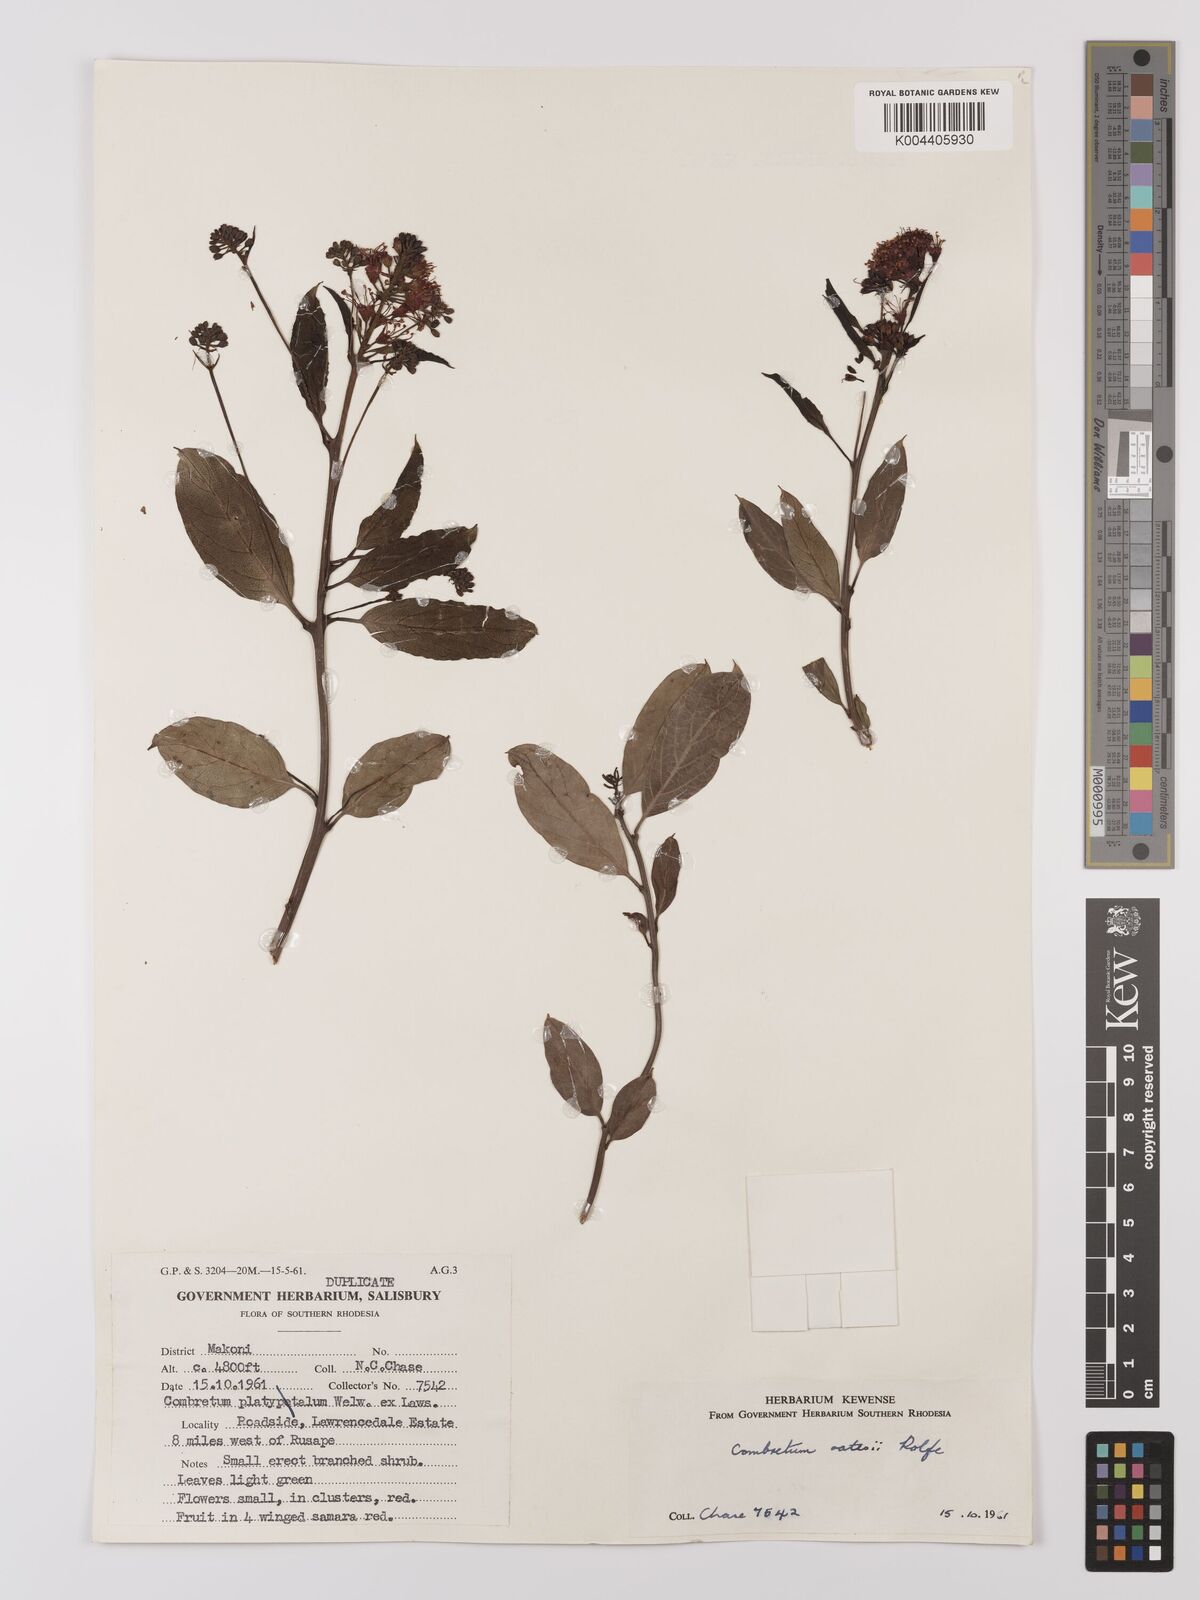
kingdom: Plantae
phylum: Tracheophyta
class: Magnoliopsida
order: Myrtales
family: Combretaceae
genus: Combretum
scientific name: Combretum platypetalum
